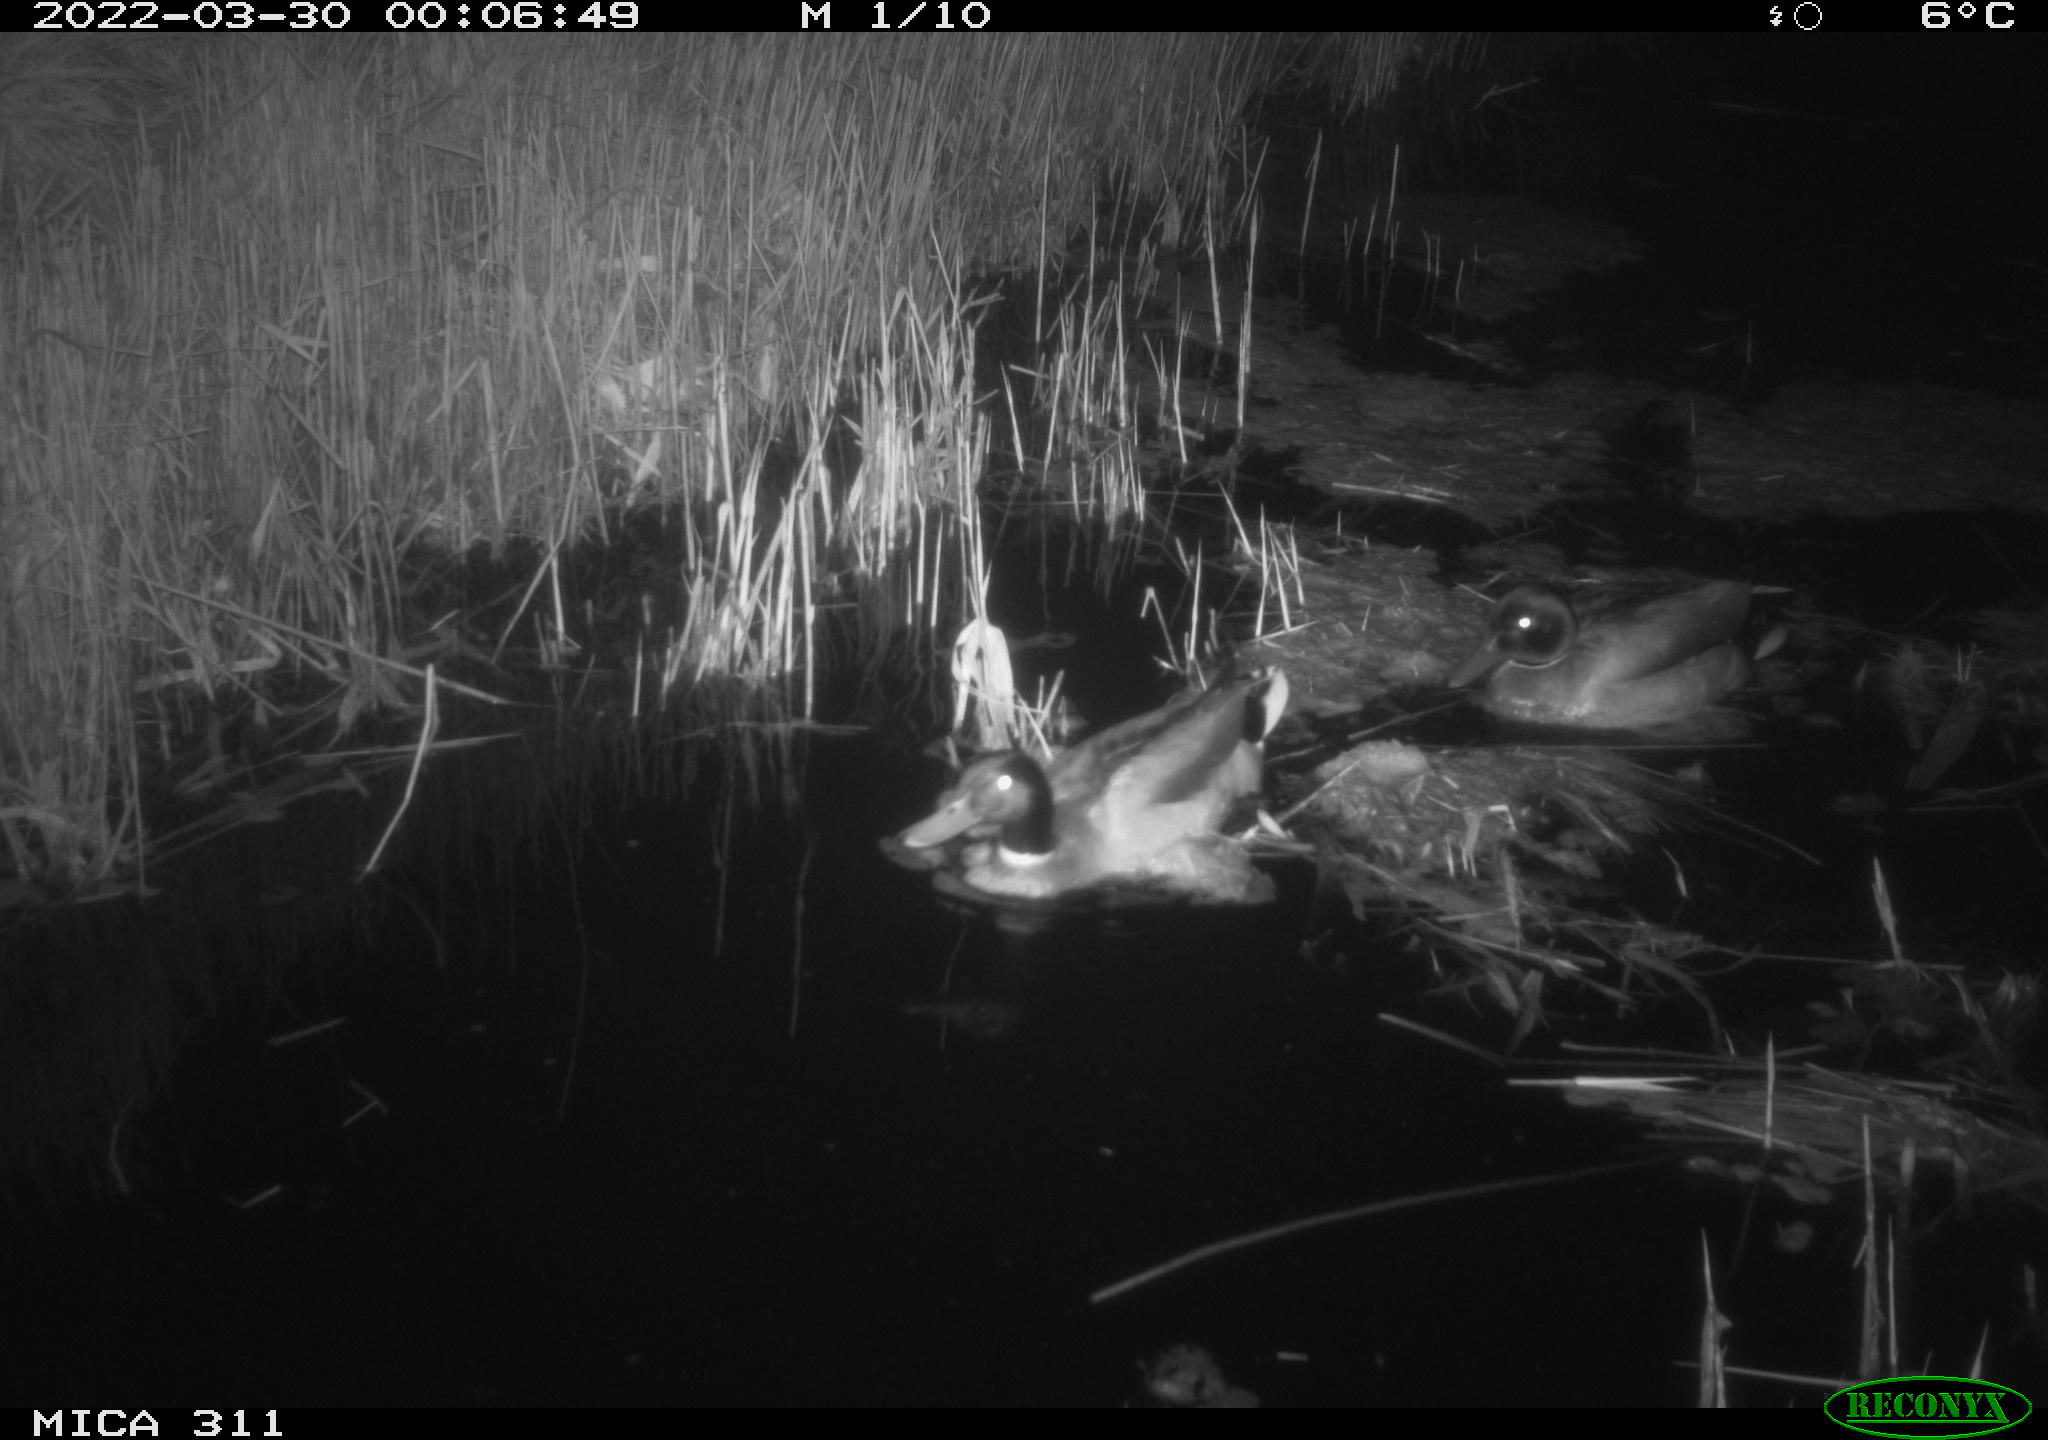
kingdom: Animalia
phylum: Chordata
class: Aves
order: Anseriformes
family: Anatidae
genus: Anas
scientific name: Anas platyrhynchos
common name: Mallard
